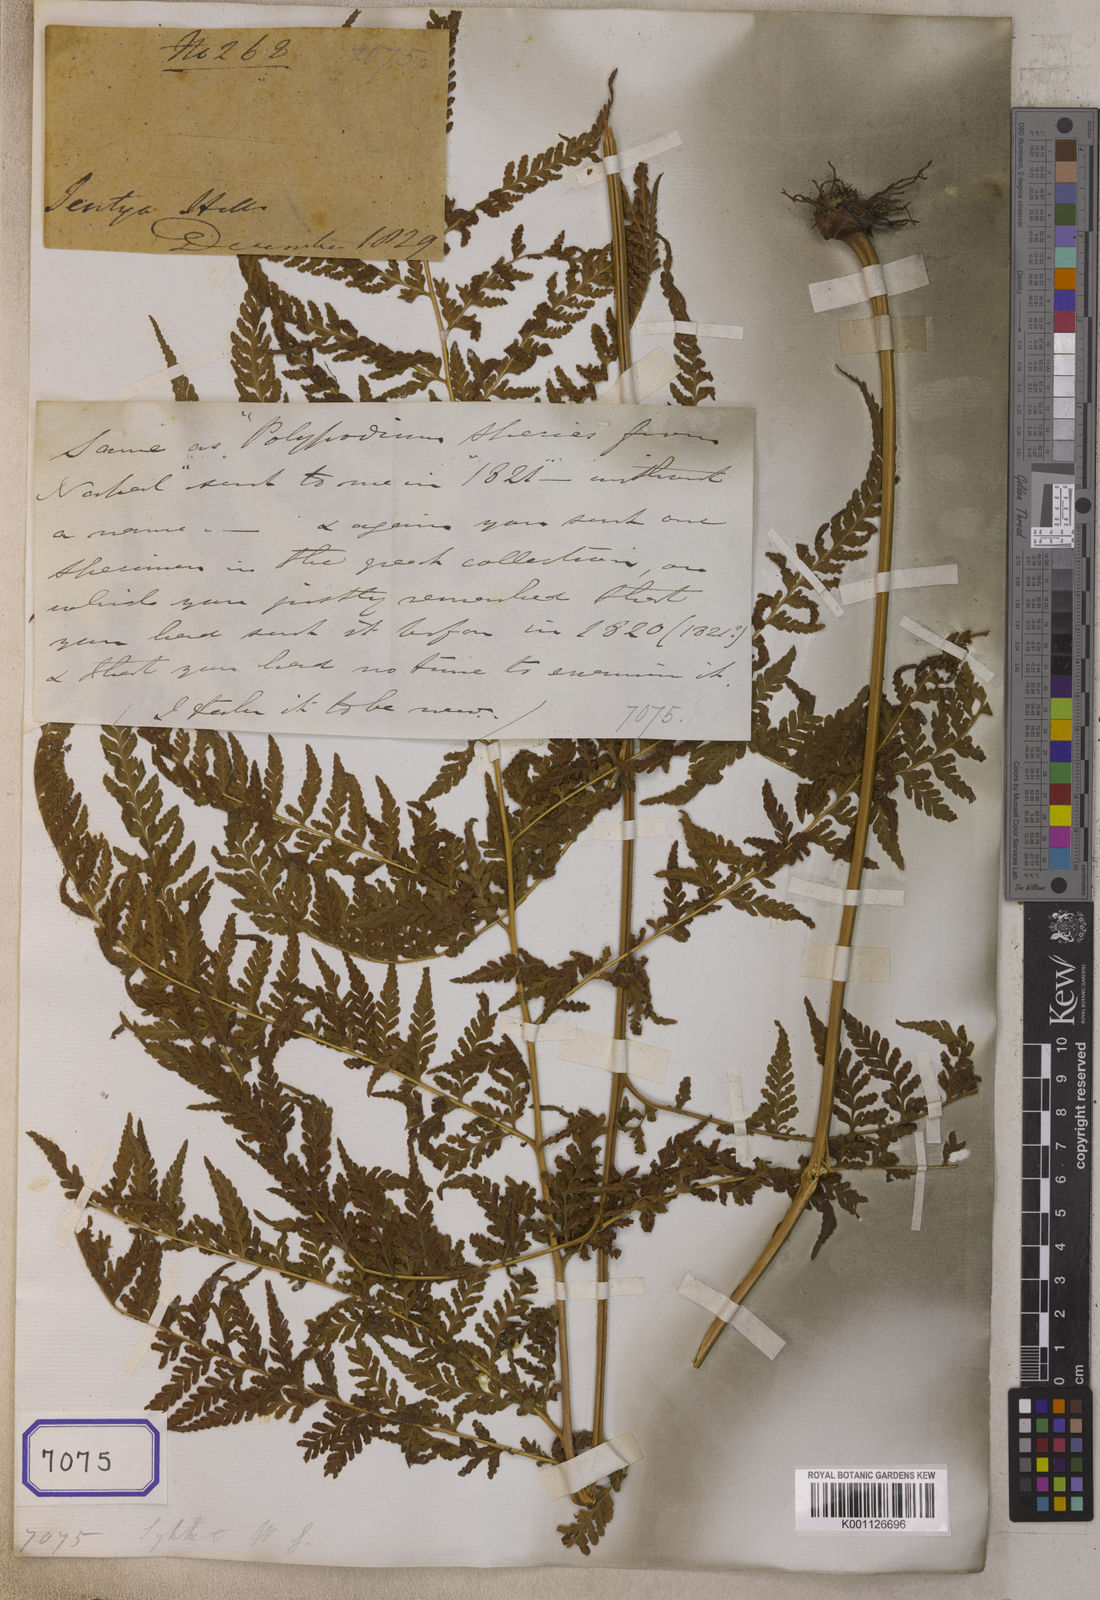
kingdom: Plantae
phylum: Tracheophyta
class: Polypodiopsida
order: Polypodiales
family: Dennstaedtiaceae
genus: Microlepia
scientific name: Microlepia speluncae
